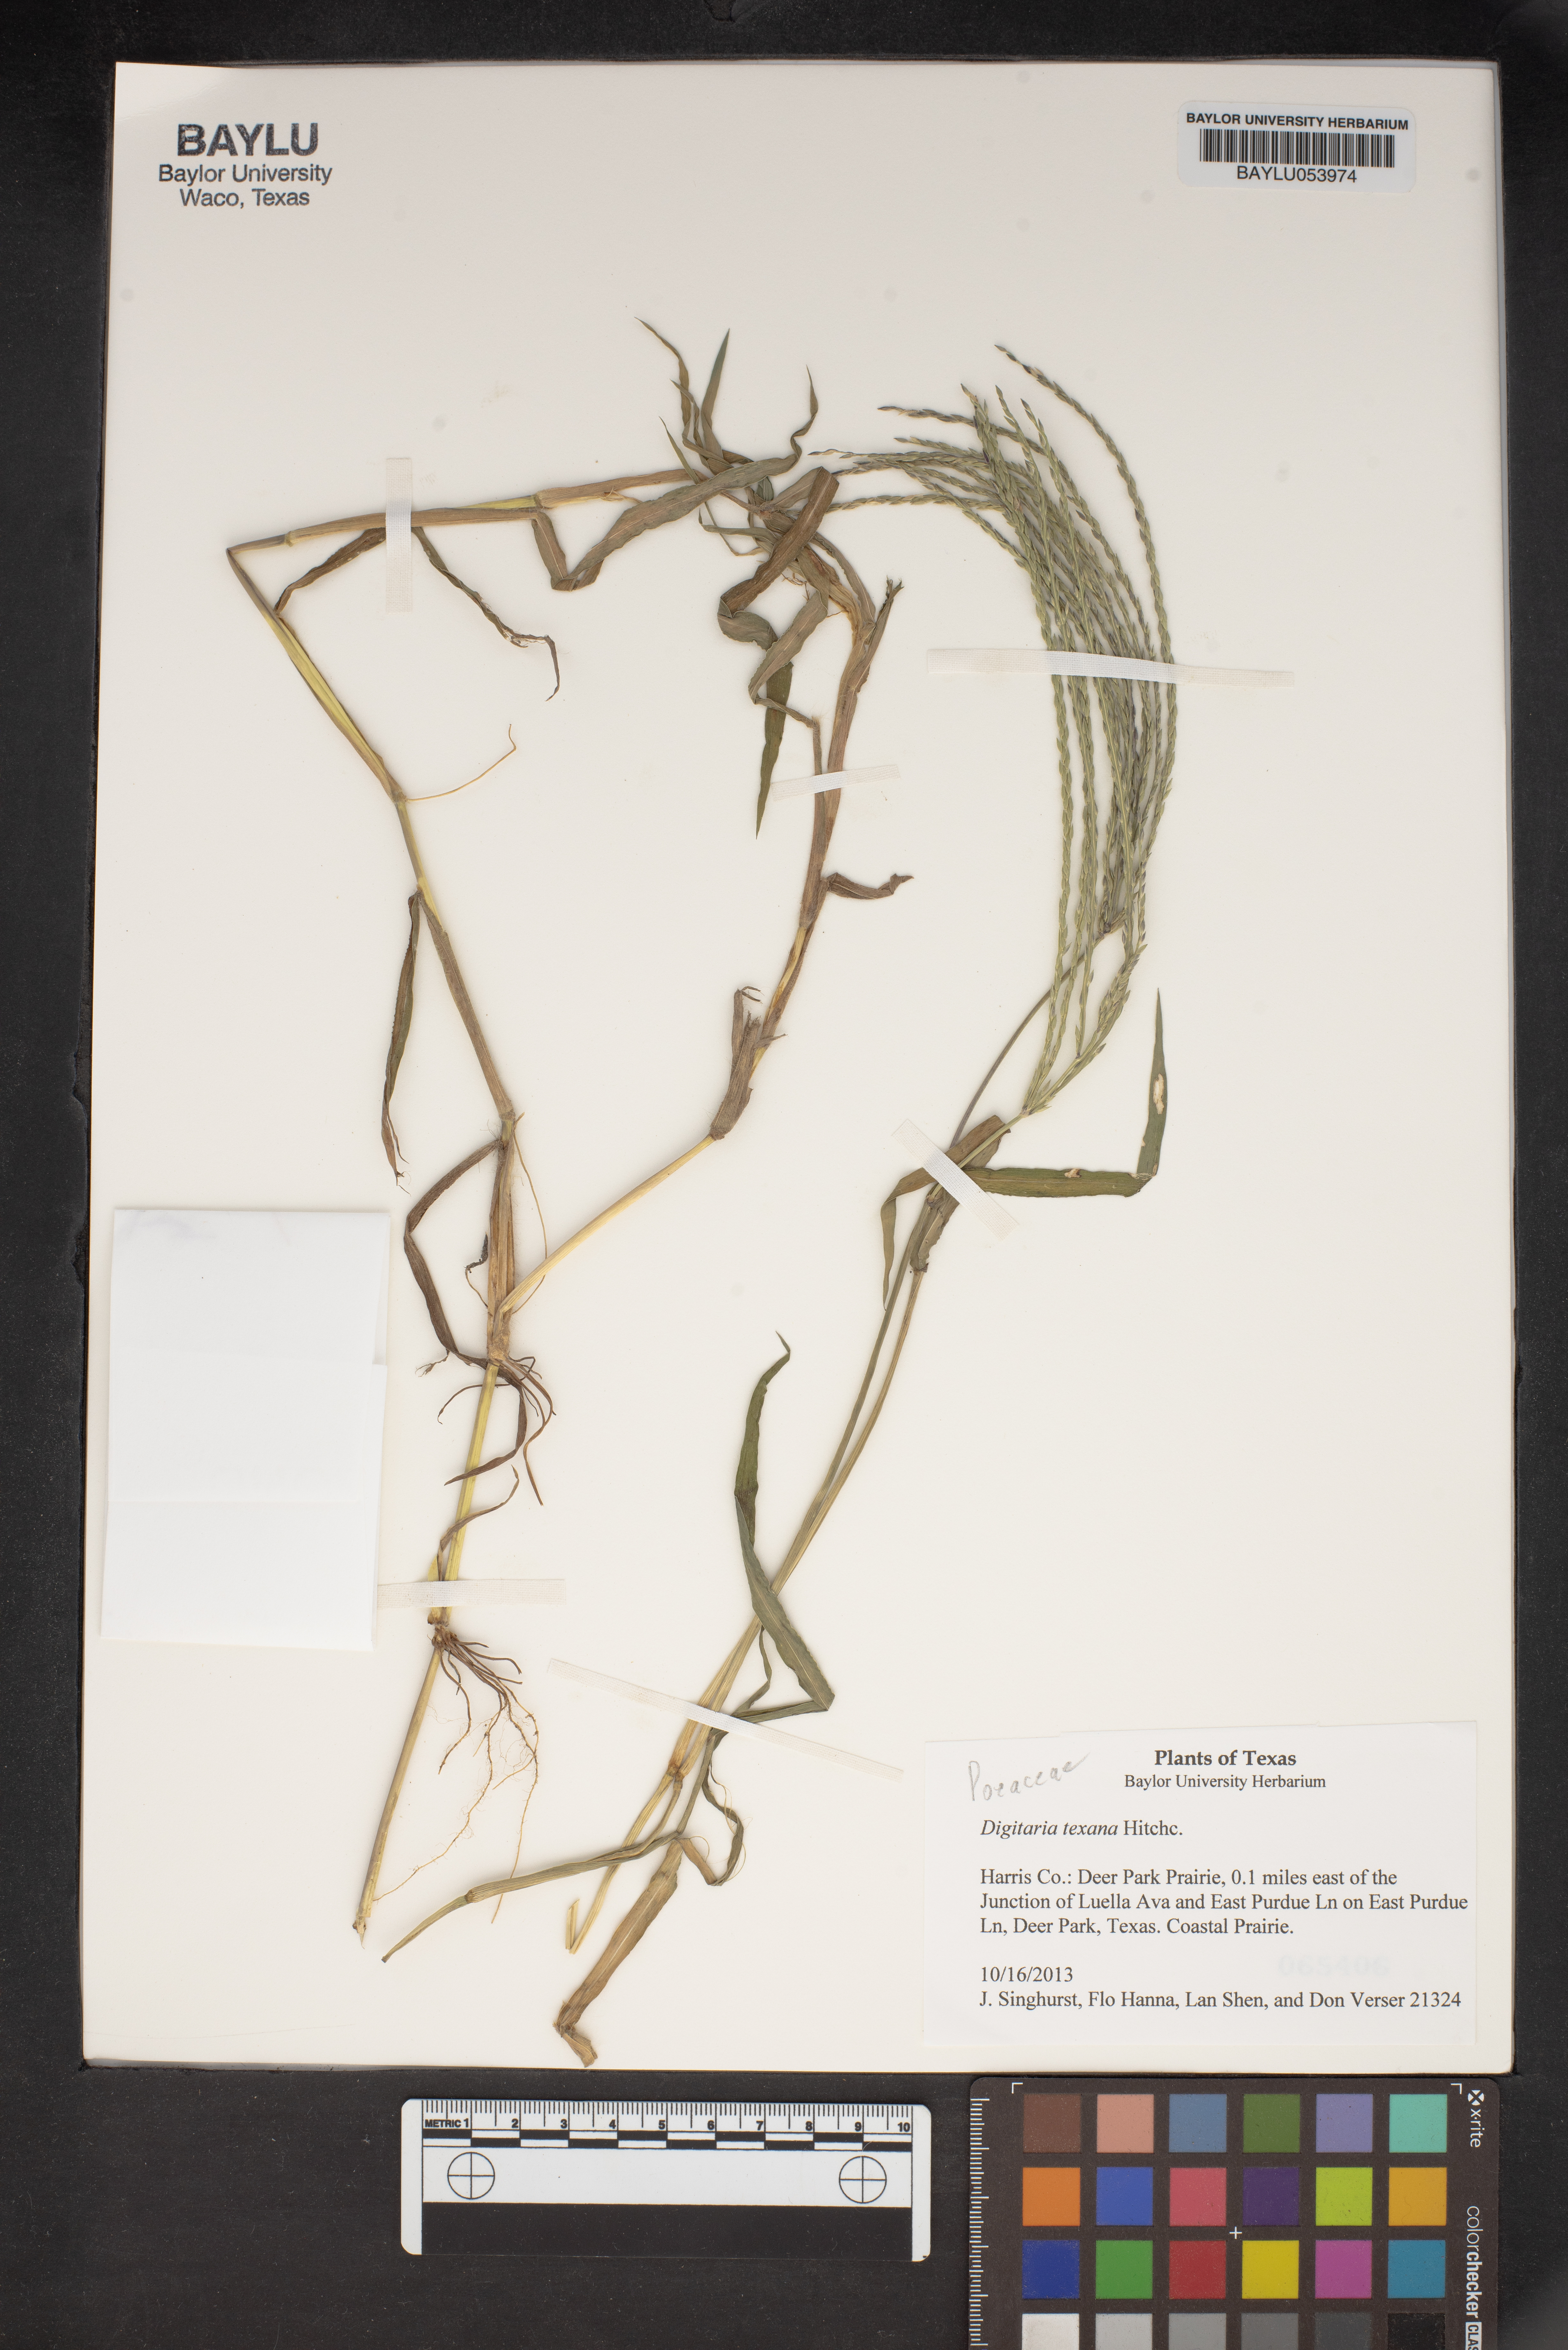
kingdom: Plantae
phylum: Tracheophyta
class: Liliopsida
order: Poales
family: Poaceae
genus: Digitaria
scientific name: Digitaria texana
